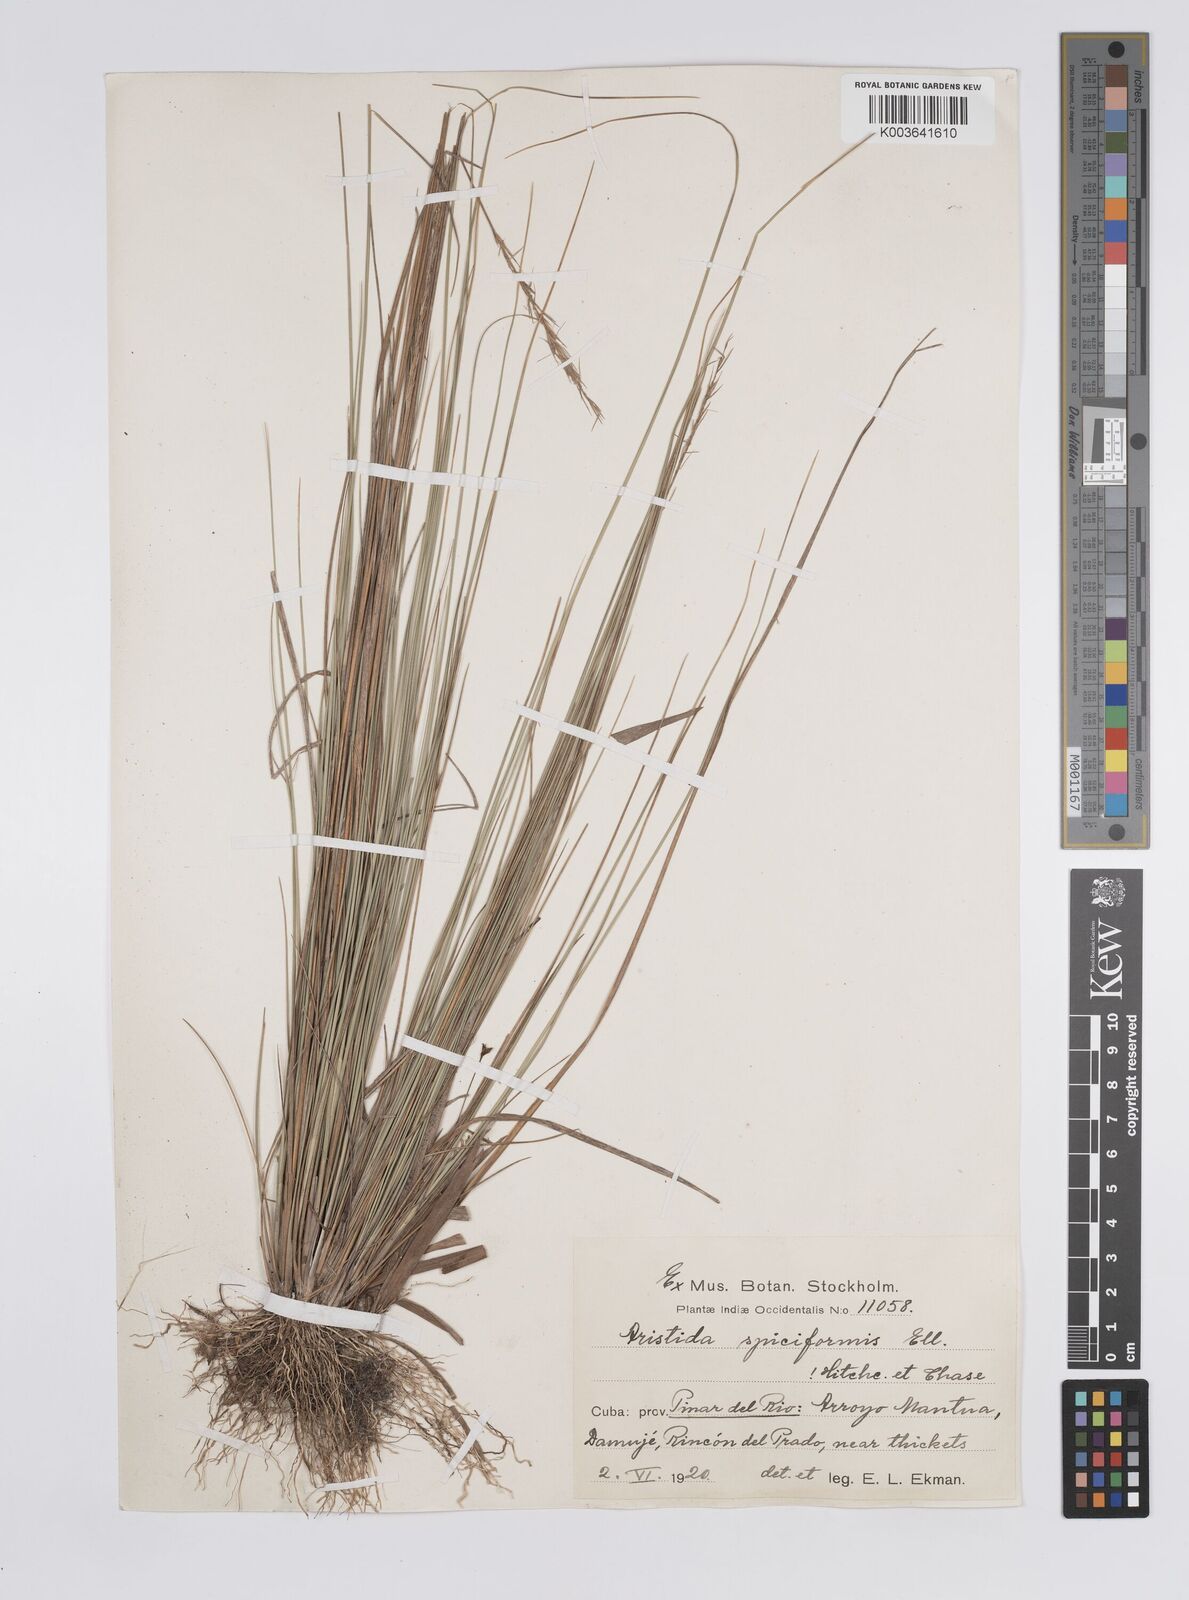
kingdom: Plantae
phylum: Tracheophyta
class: Liliopsida
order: Poales
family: Poaceae
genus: Aristida
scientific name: Aristida spiciformis
